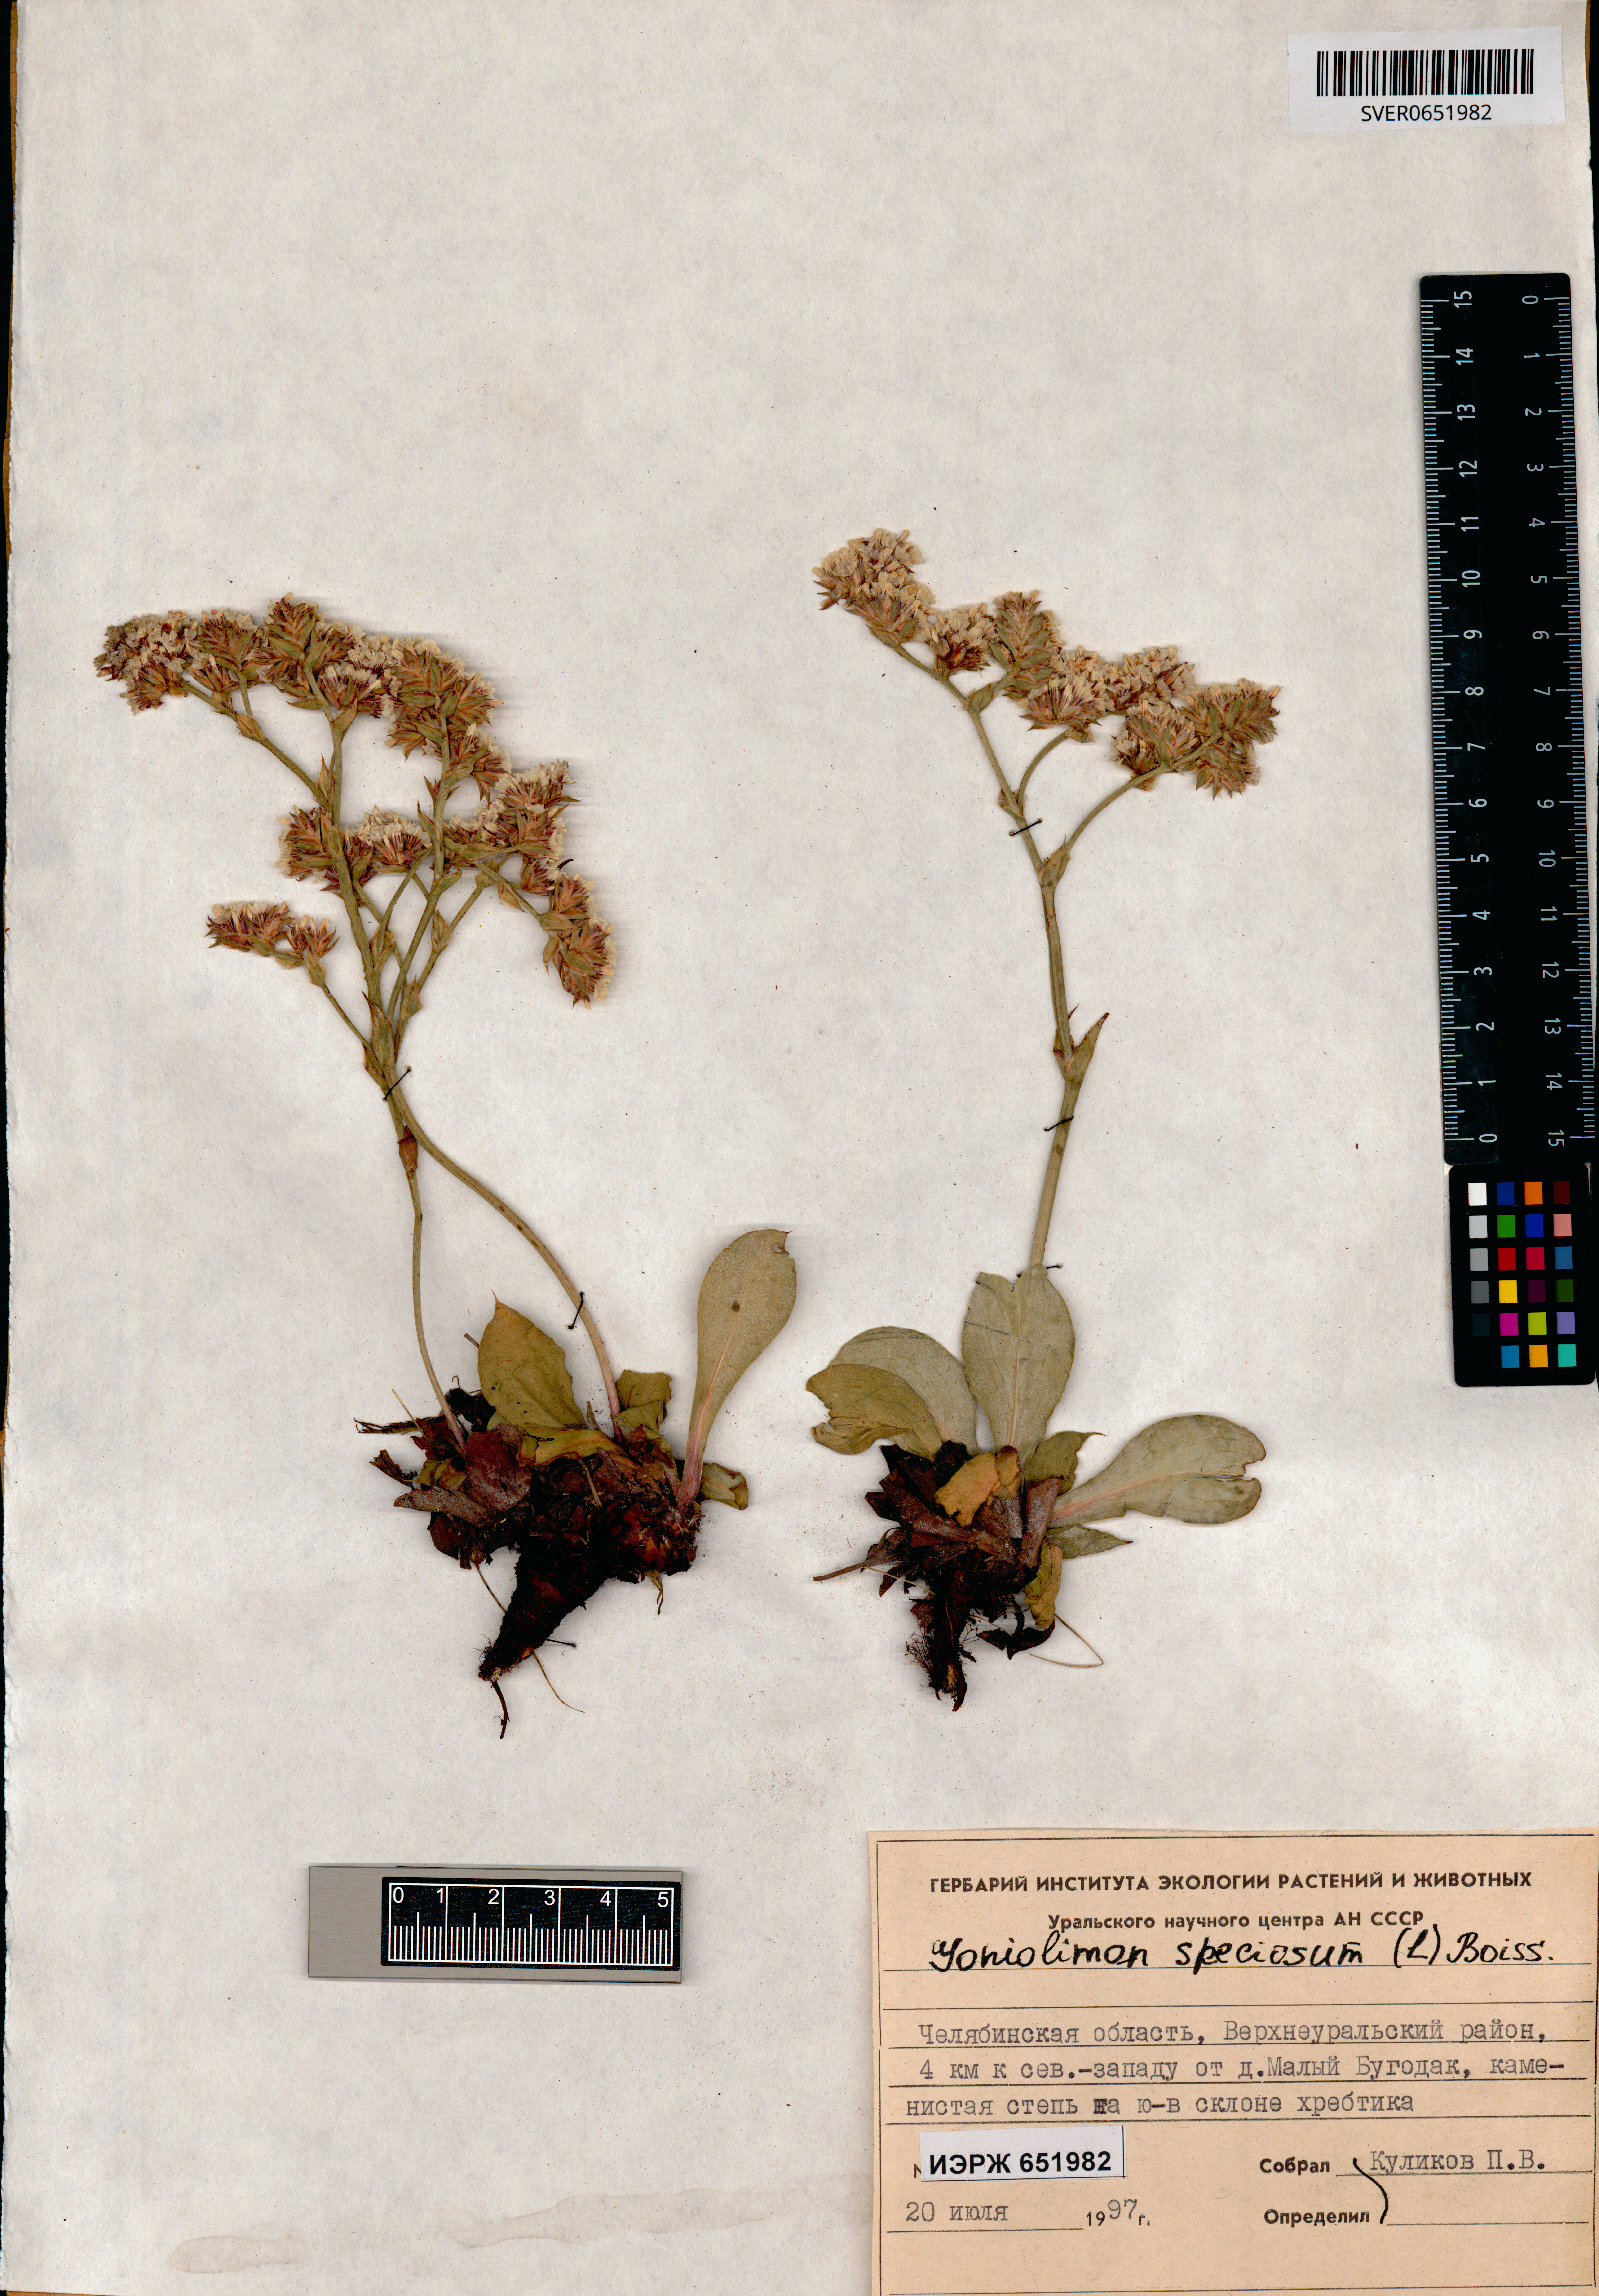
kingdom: Plantae
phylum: Tracheophyta
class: Magnoliopsida
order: Caryophyllales
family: Plumbaginaceae
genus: Goniolimon
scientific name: Goniolimon speciosum
